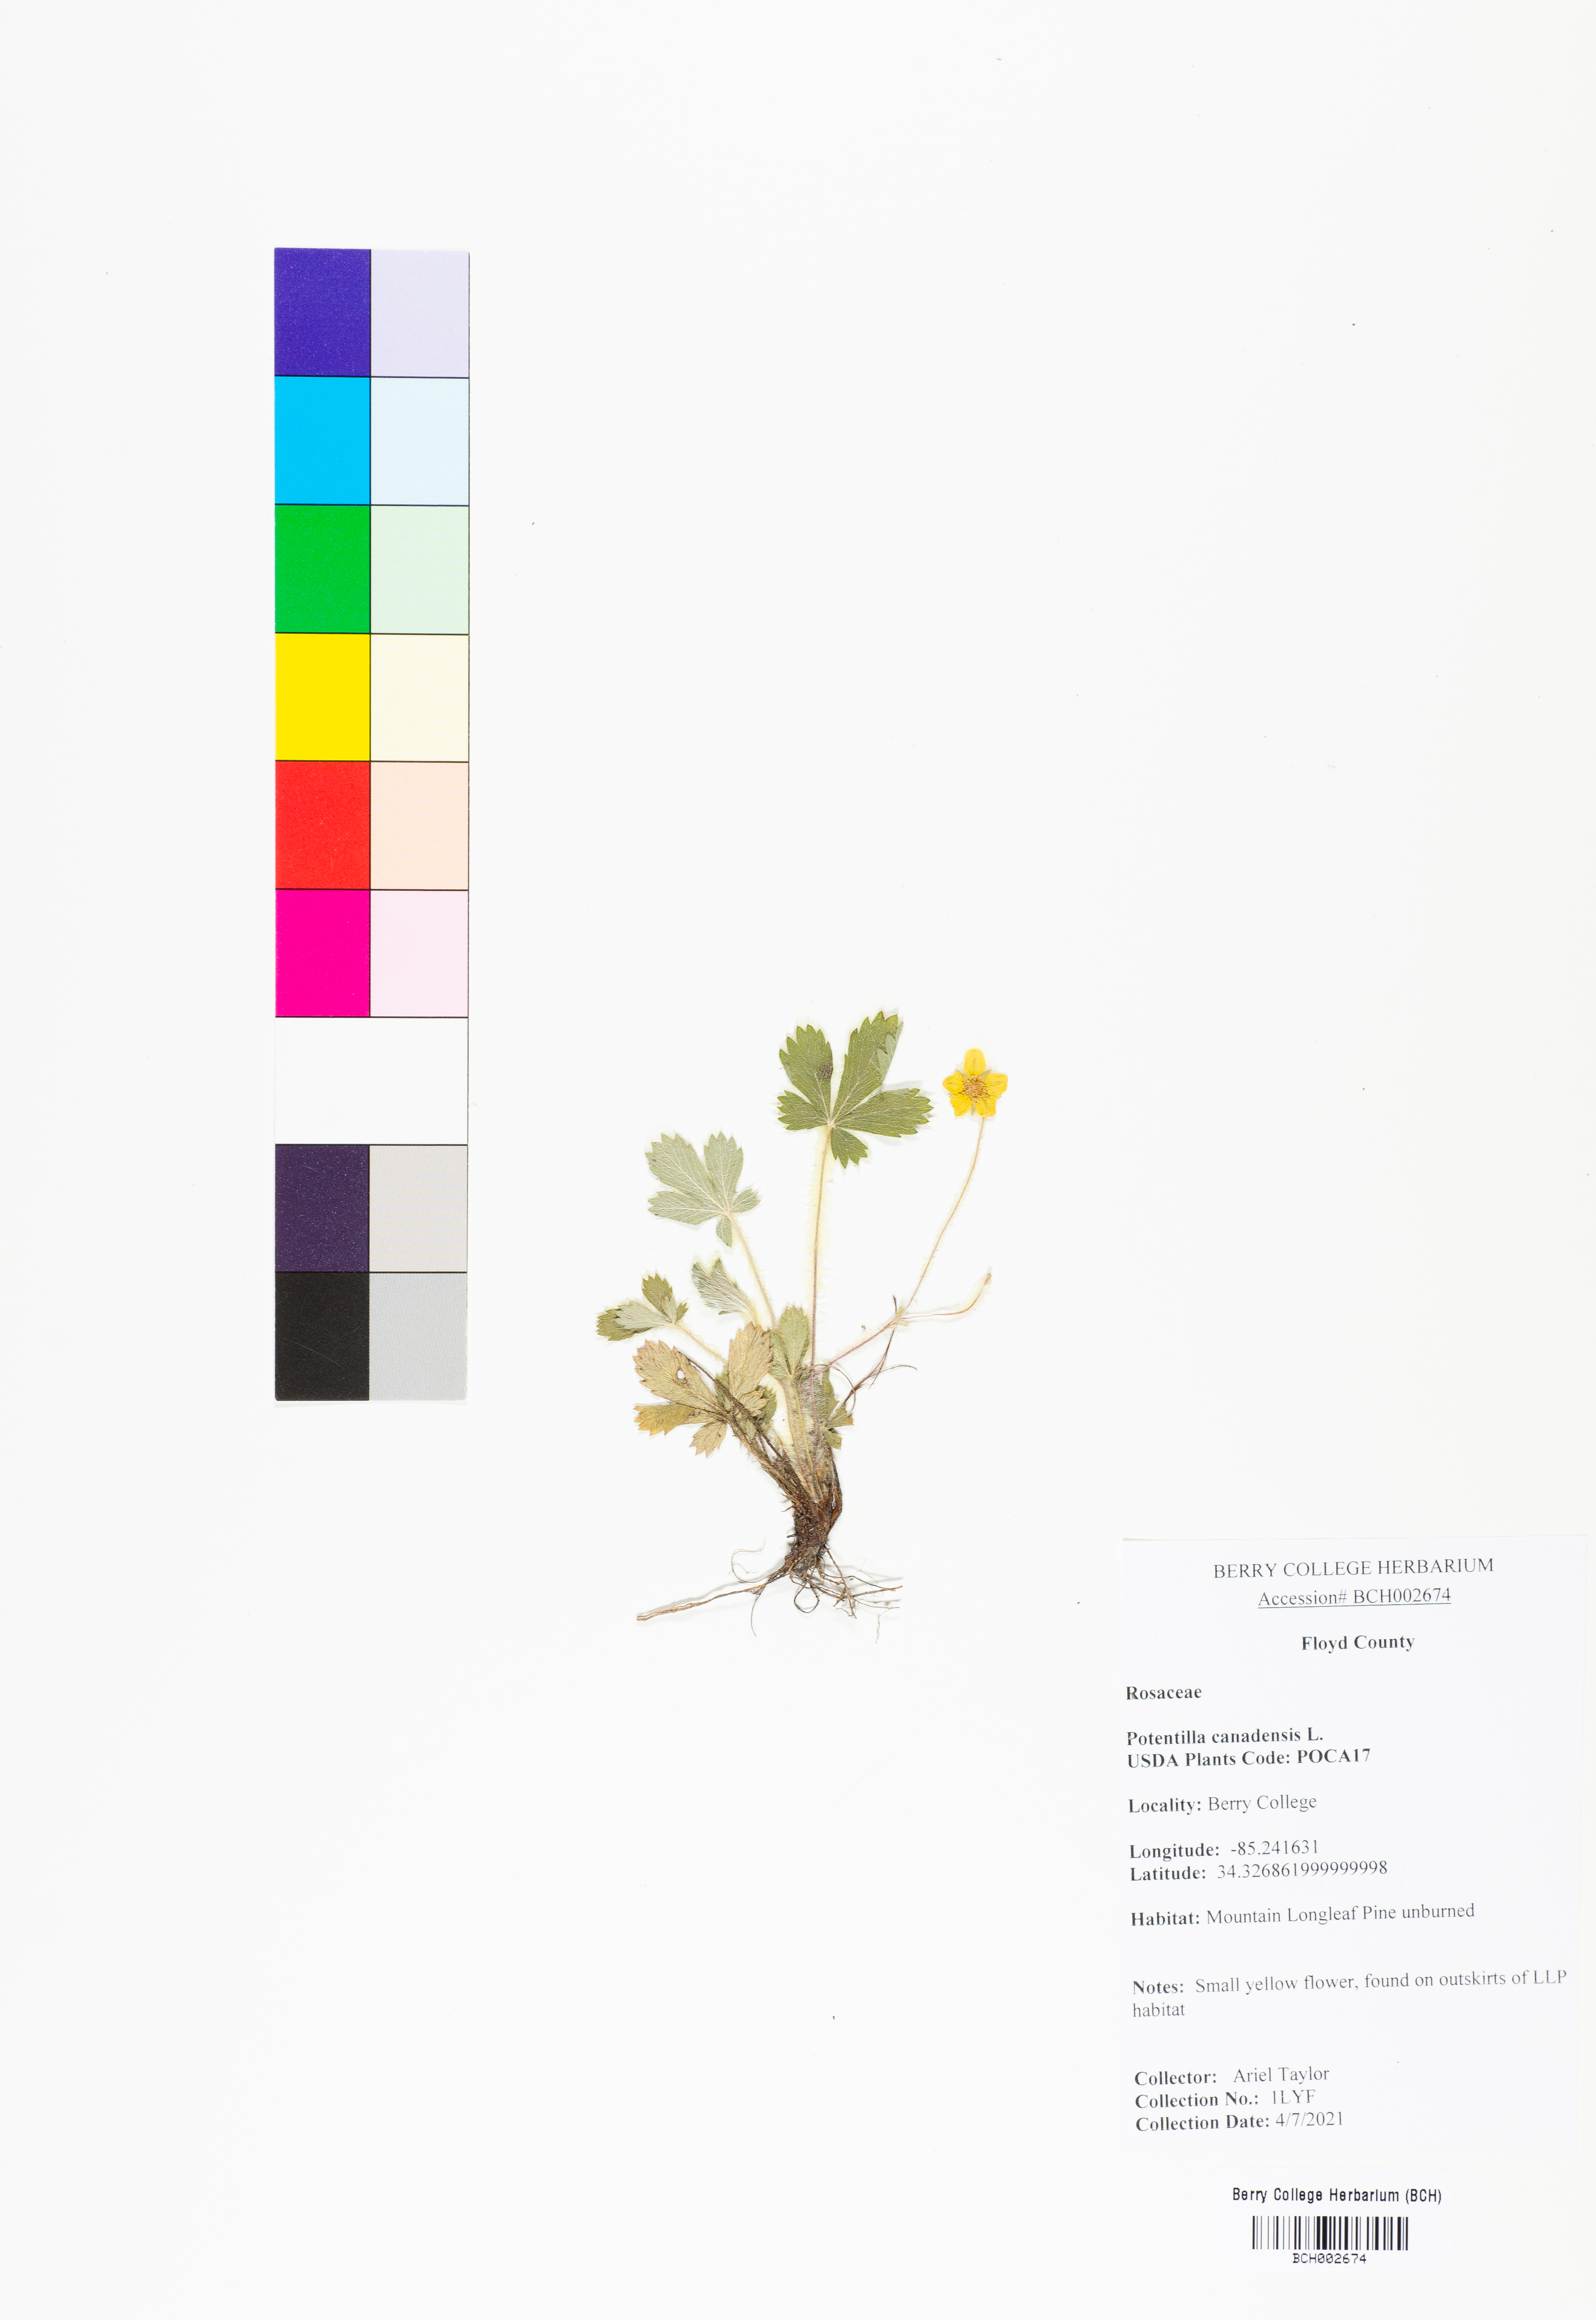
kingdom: Plantae
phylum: Tracheophyta
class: Magnoliopsida
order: Rosales
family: Rosaceae
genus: Potentilla
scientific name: Potentilla canadensis
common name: Canada cinquefoil
